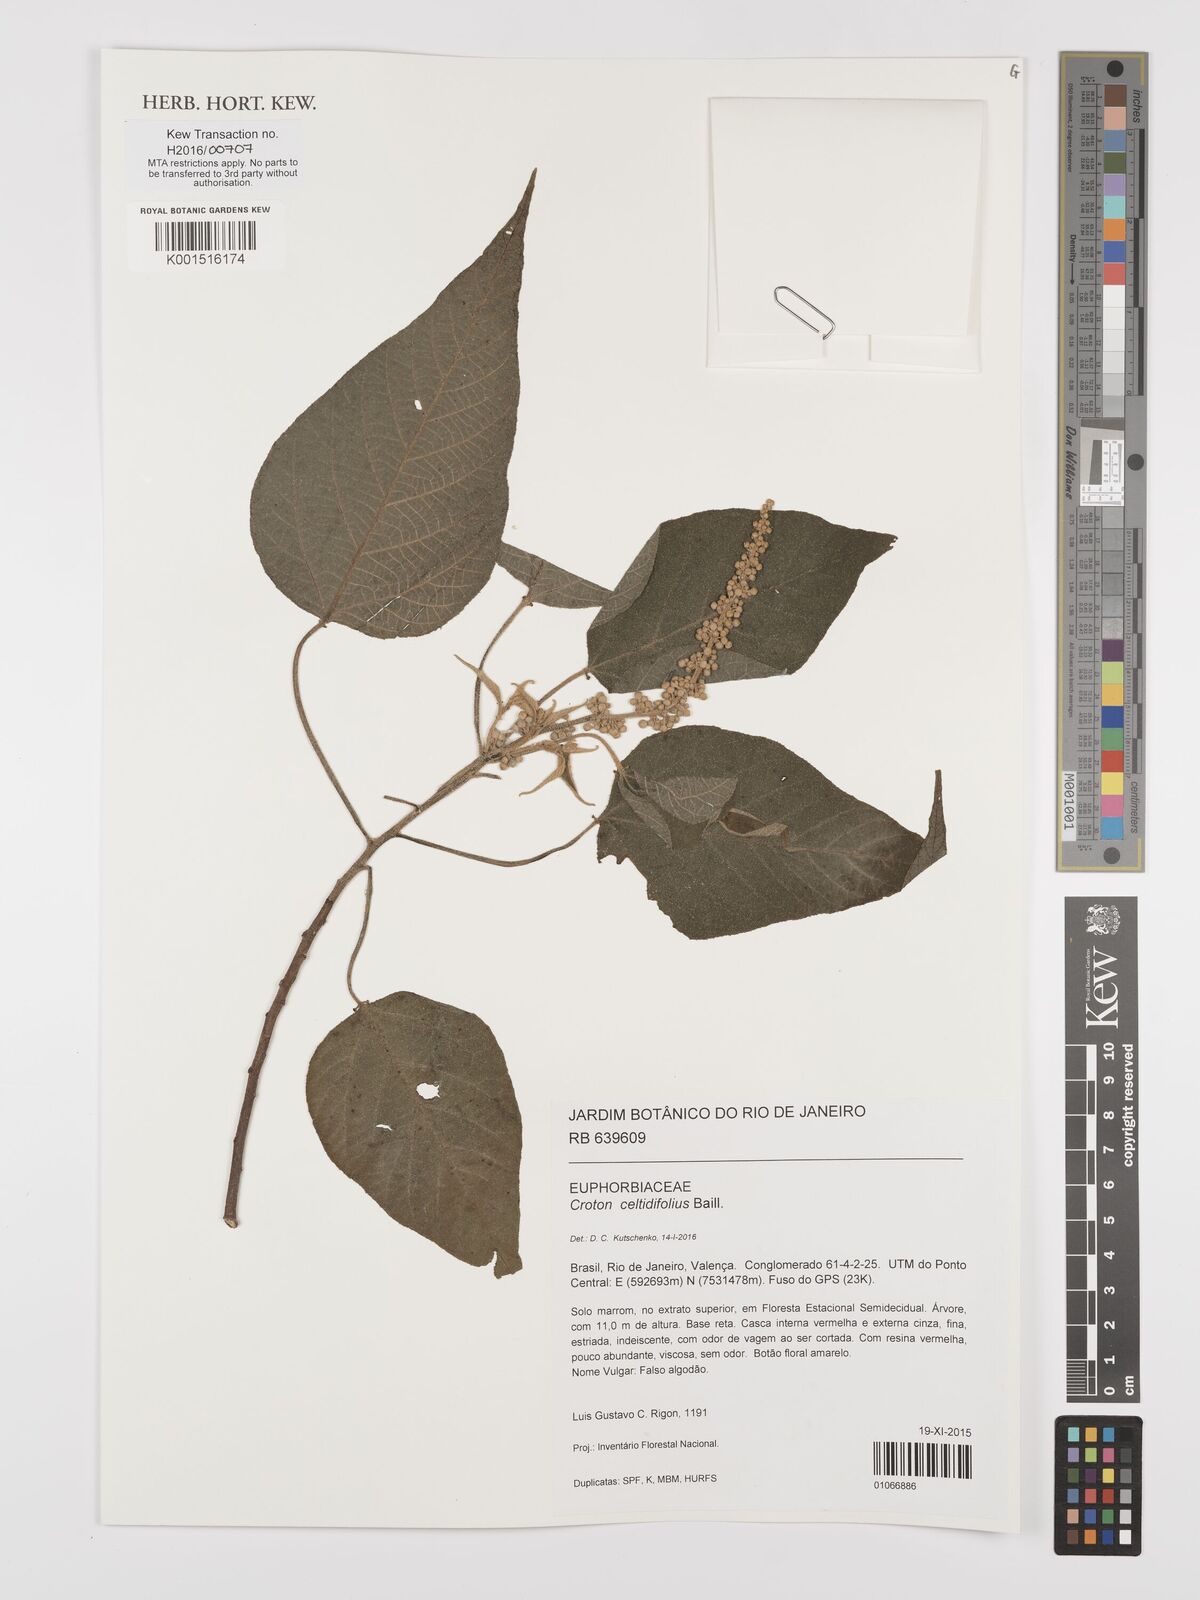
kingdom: Plantae
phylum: Tracheophyta
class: Magnoliopsida
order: Malpighiales
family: Euphorbiaceae
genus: Croton
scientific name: Croton celtidifolius
